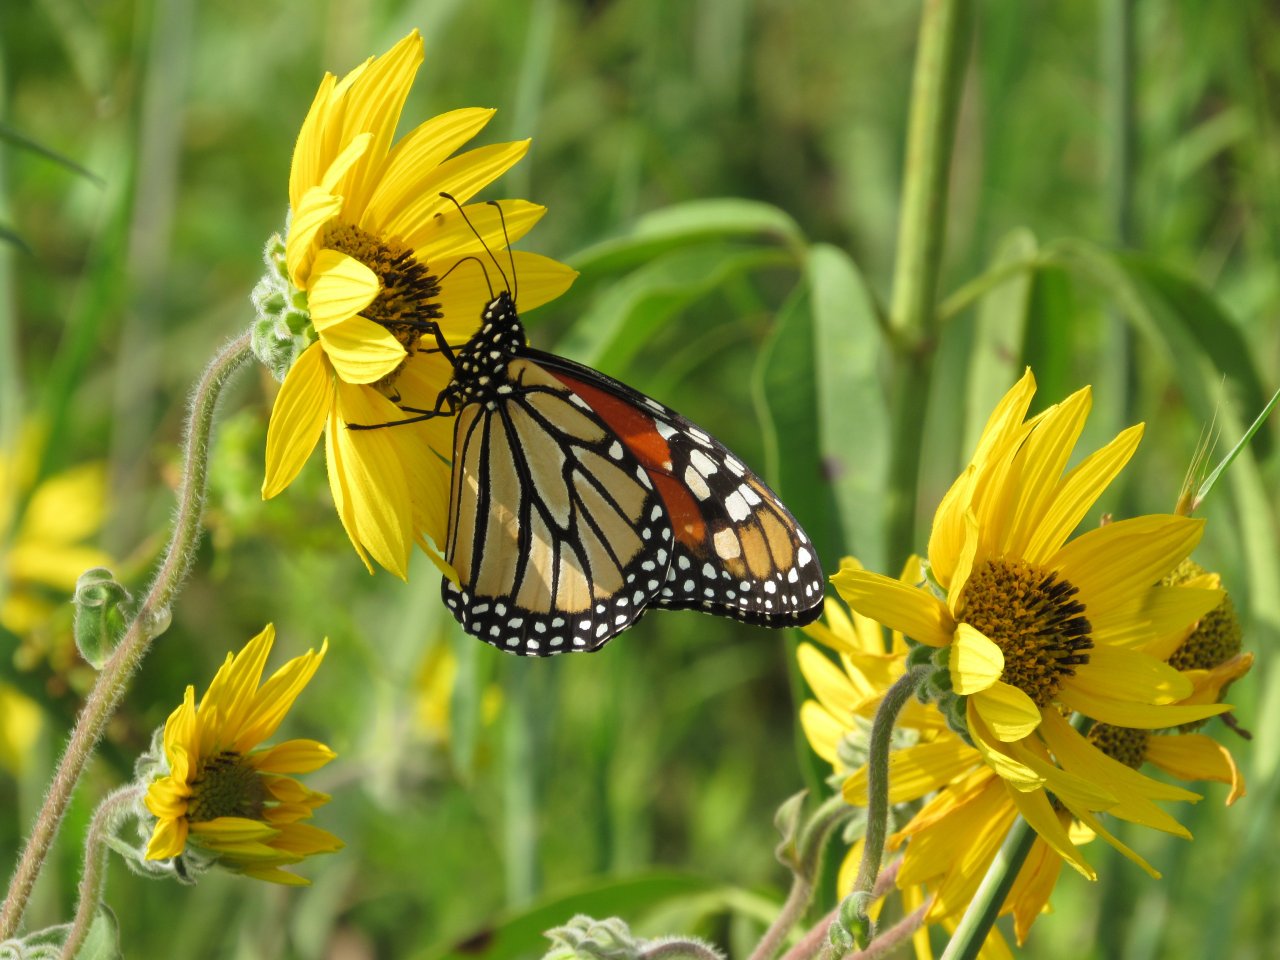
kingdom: Animalia
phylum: Arthropoda
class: Insecta
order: Lepidoptera
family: Nymphalidae
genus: Danaus
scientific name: Danaus plexippus
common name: Monarch
